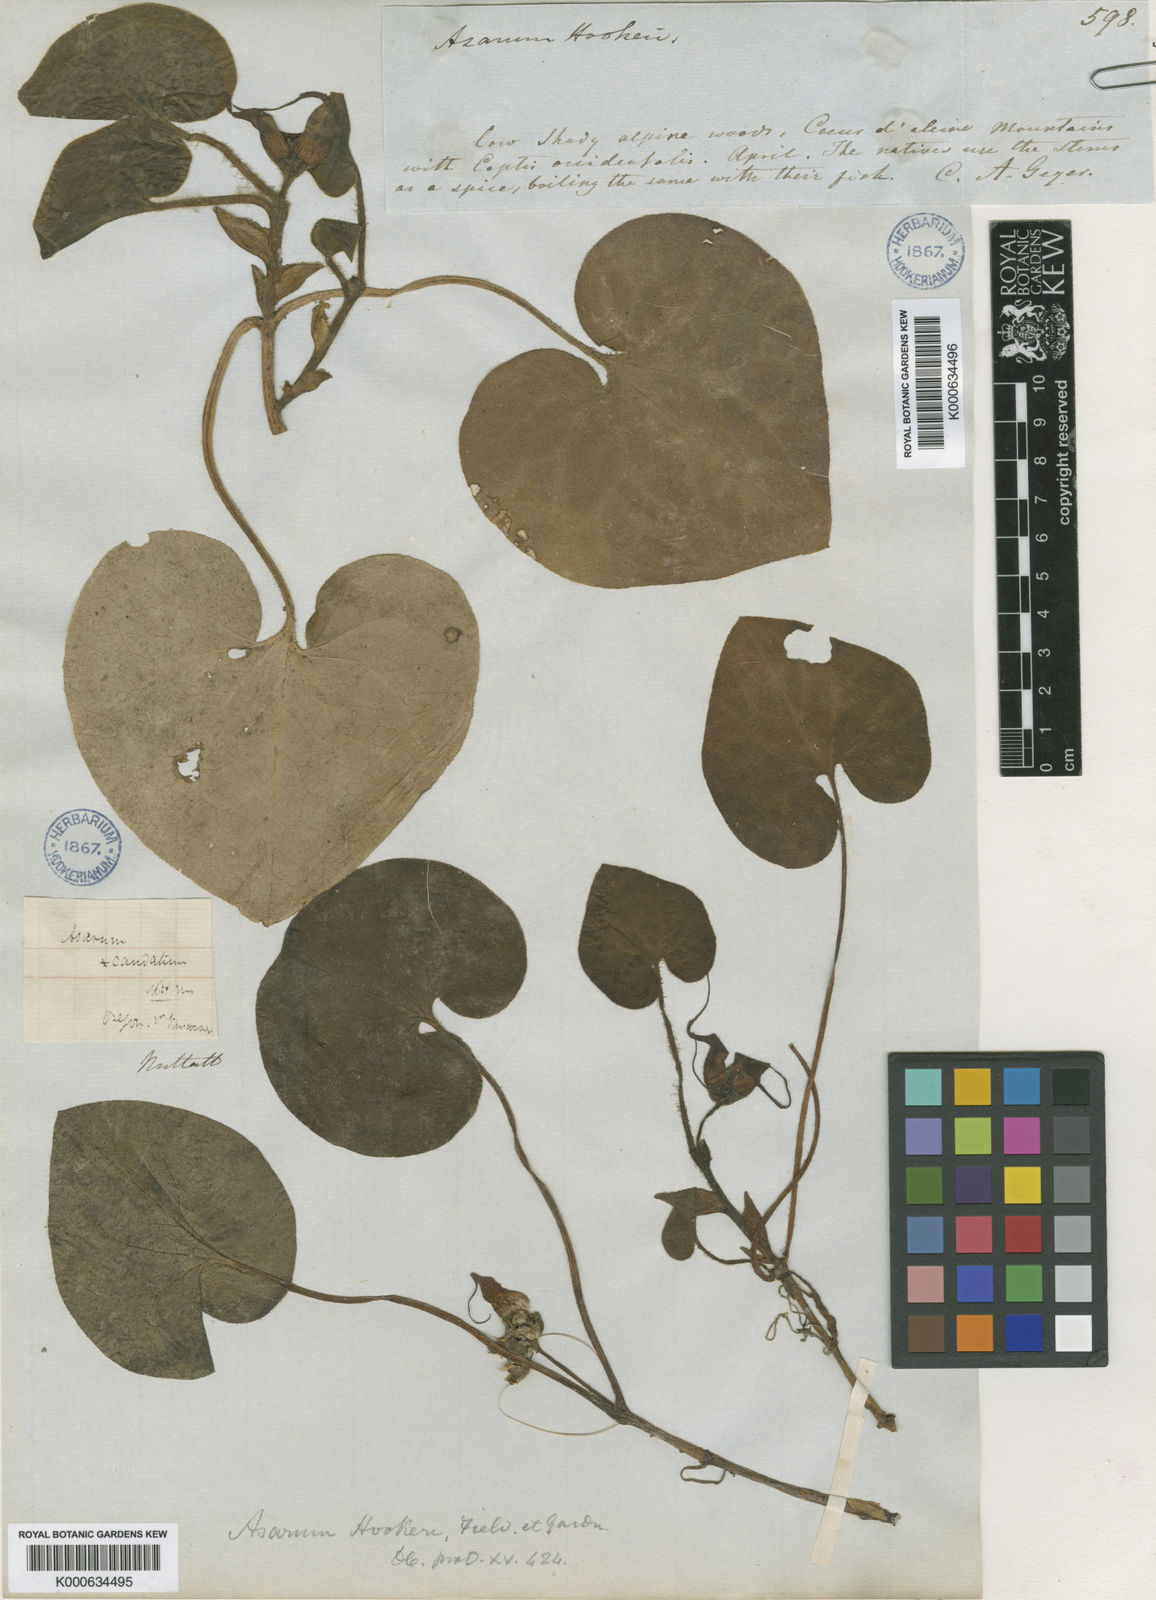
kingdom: Plantae
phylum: Tracheophyta
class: Magnoliopsida
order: Piperales
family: Aristolochiaceae
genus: Asarum
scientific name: Asarum caudatum
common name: Wild ginger
